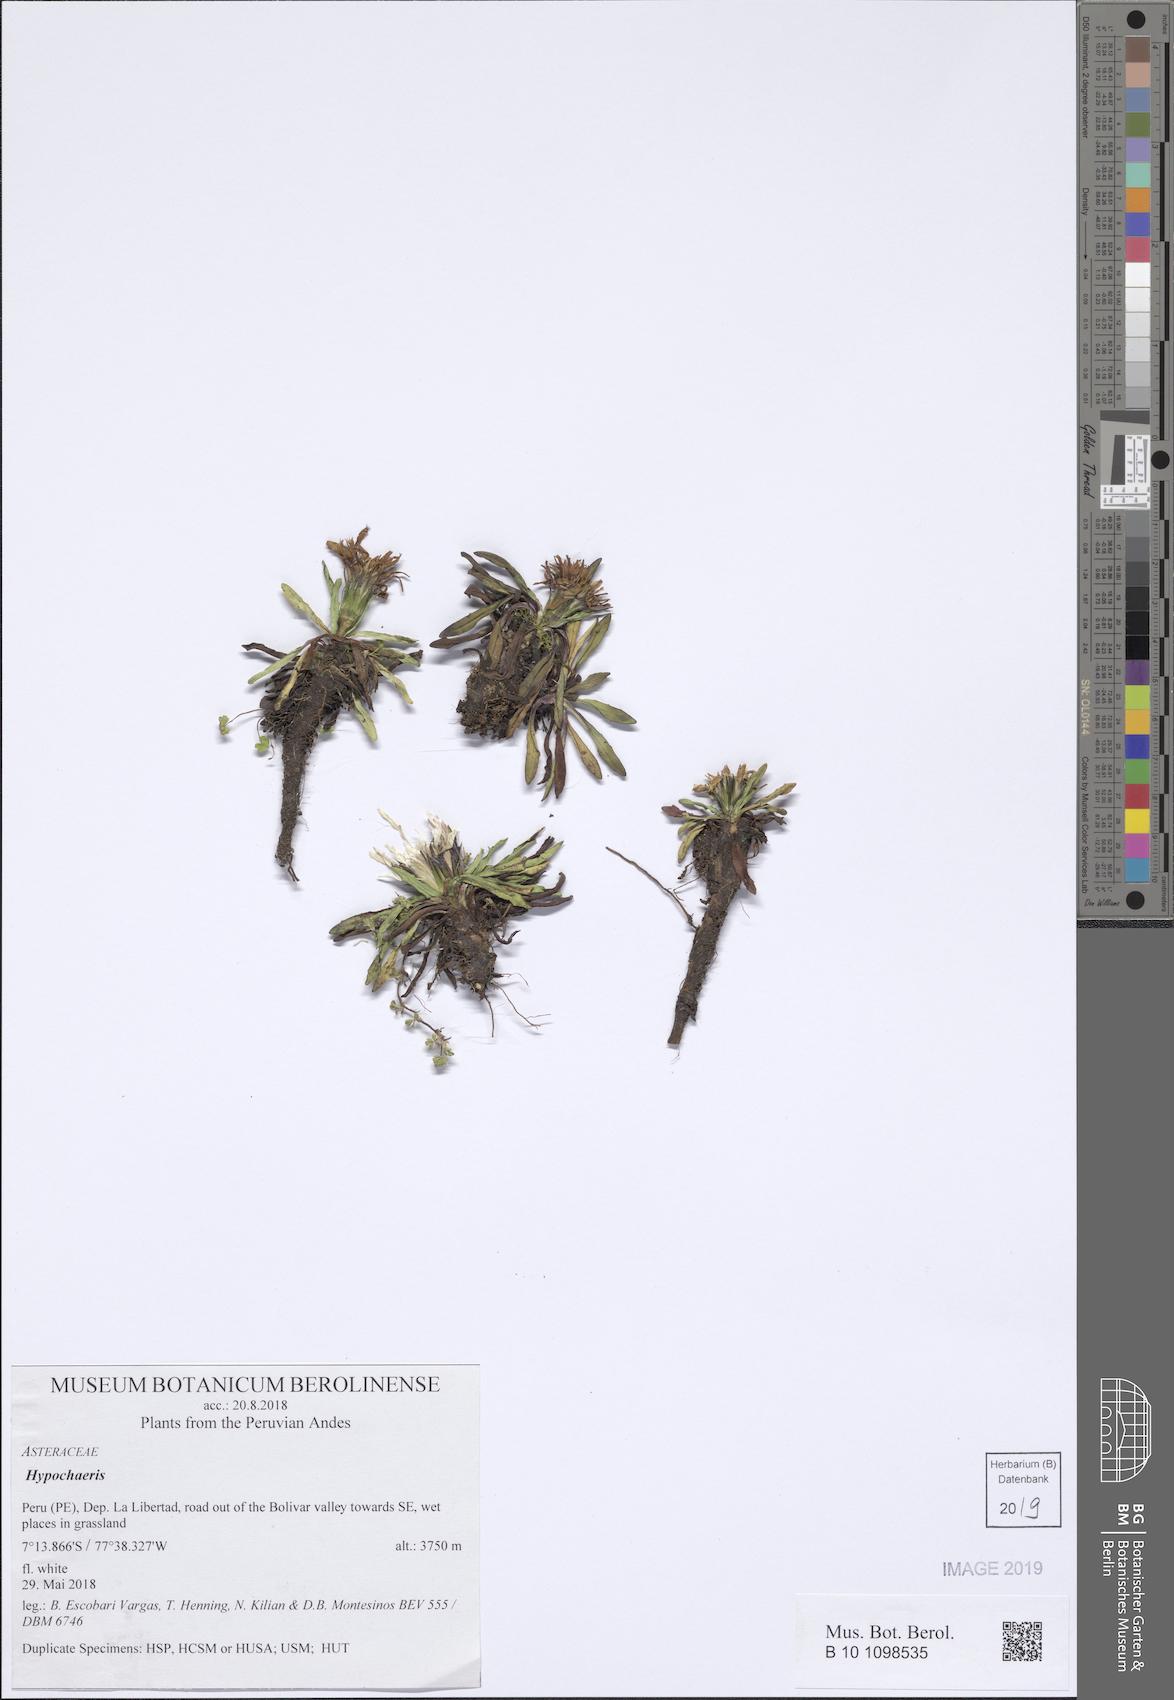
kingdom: Plantae
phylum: Tracheophyta
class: Magnoliopsida
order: Asterales
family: Asteraceae
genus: Hypochaeris
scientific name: Hypochaeris
